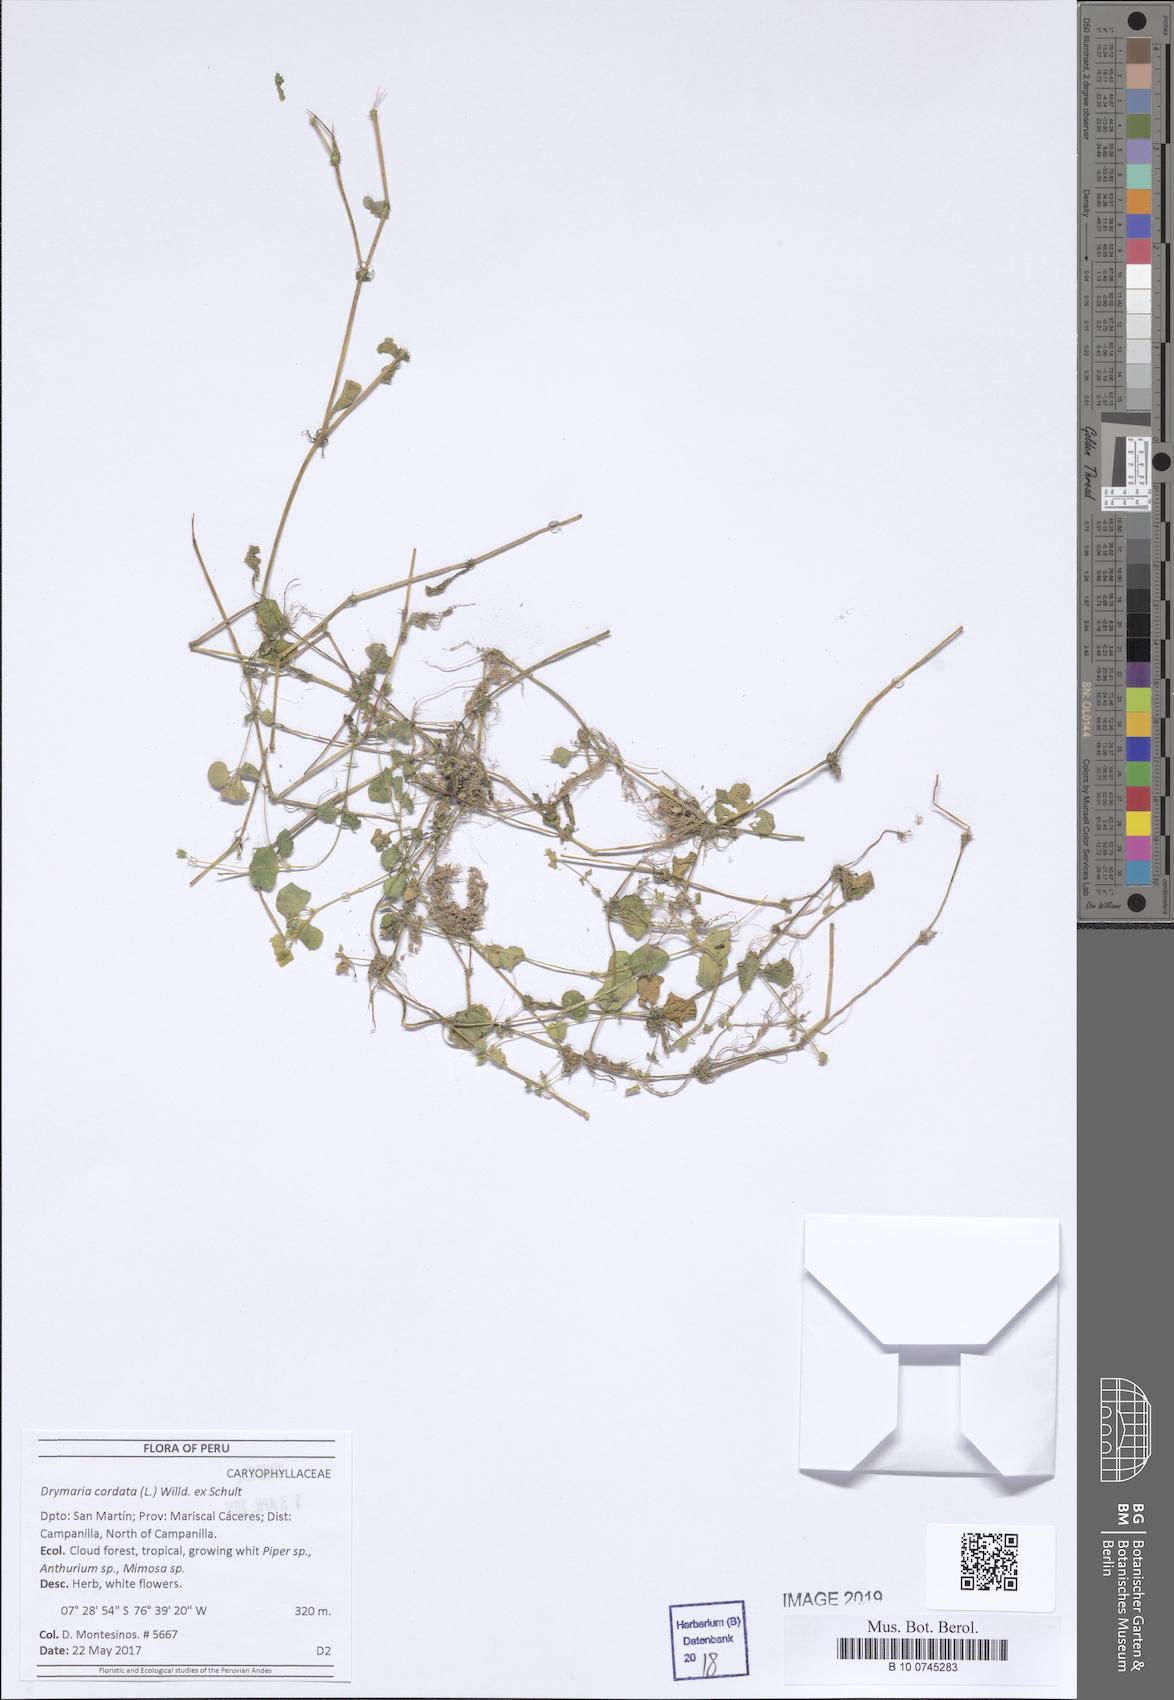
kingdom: Plantae
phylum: Tracheophyta
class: Magnoliopsida
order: Caryophyllales
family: Caryophyllaceae
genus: Drymaria
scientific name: Drymaria cordata
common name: Whitesnow
